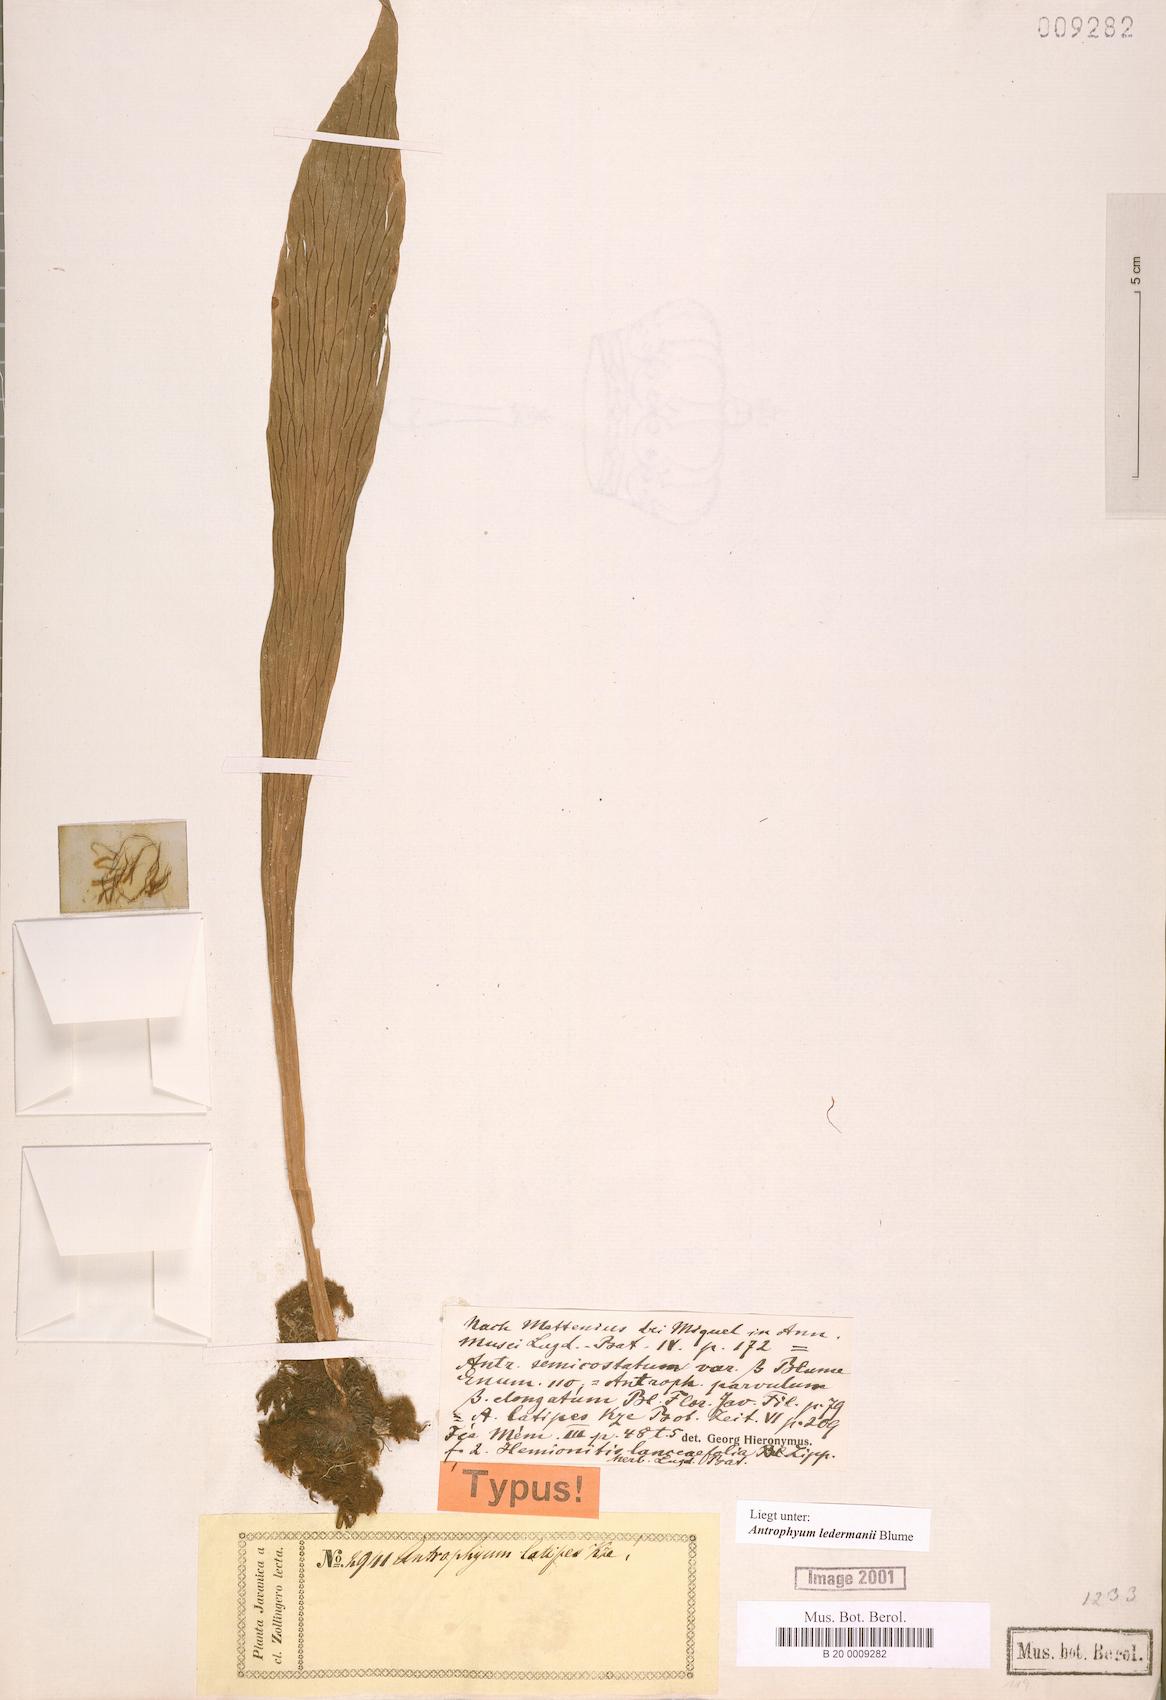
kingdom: Plantae
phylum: Tracheophyta
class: Polypodiopsida
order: Polypodiales
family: Pteridaceae
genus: Antrophyum
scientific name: Antrophyum semicostatum
